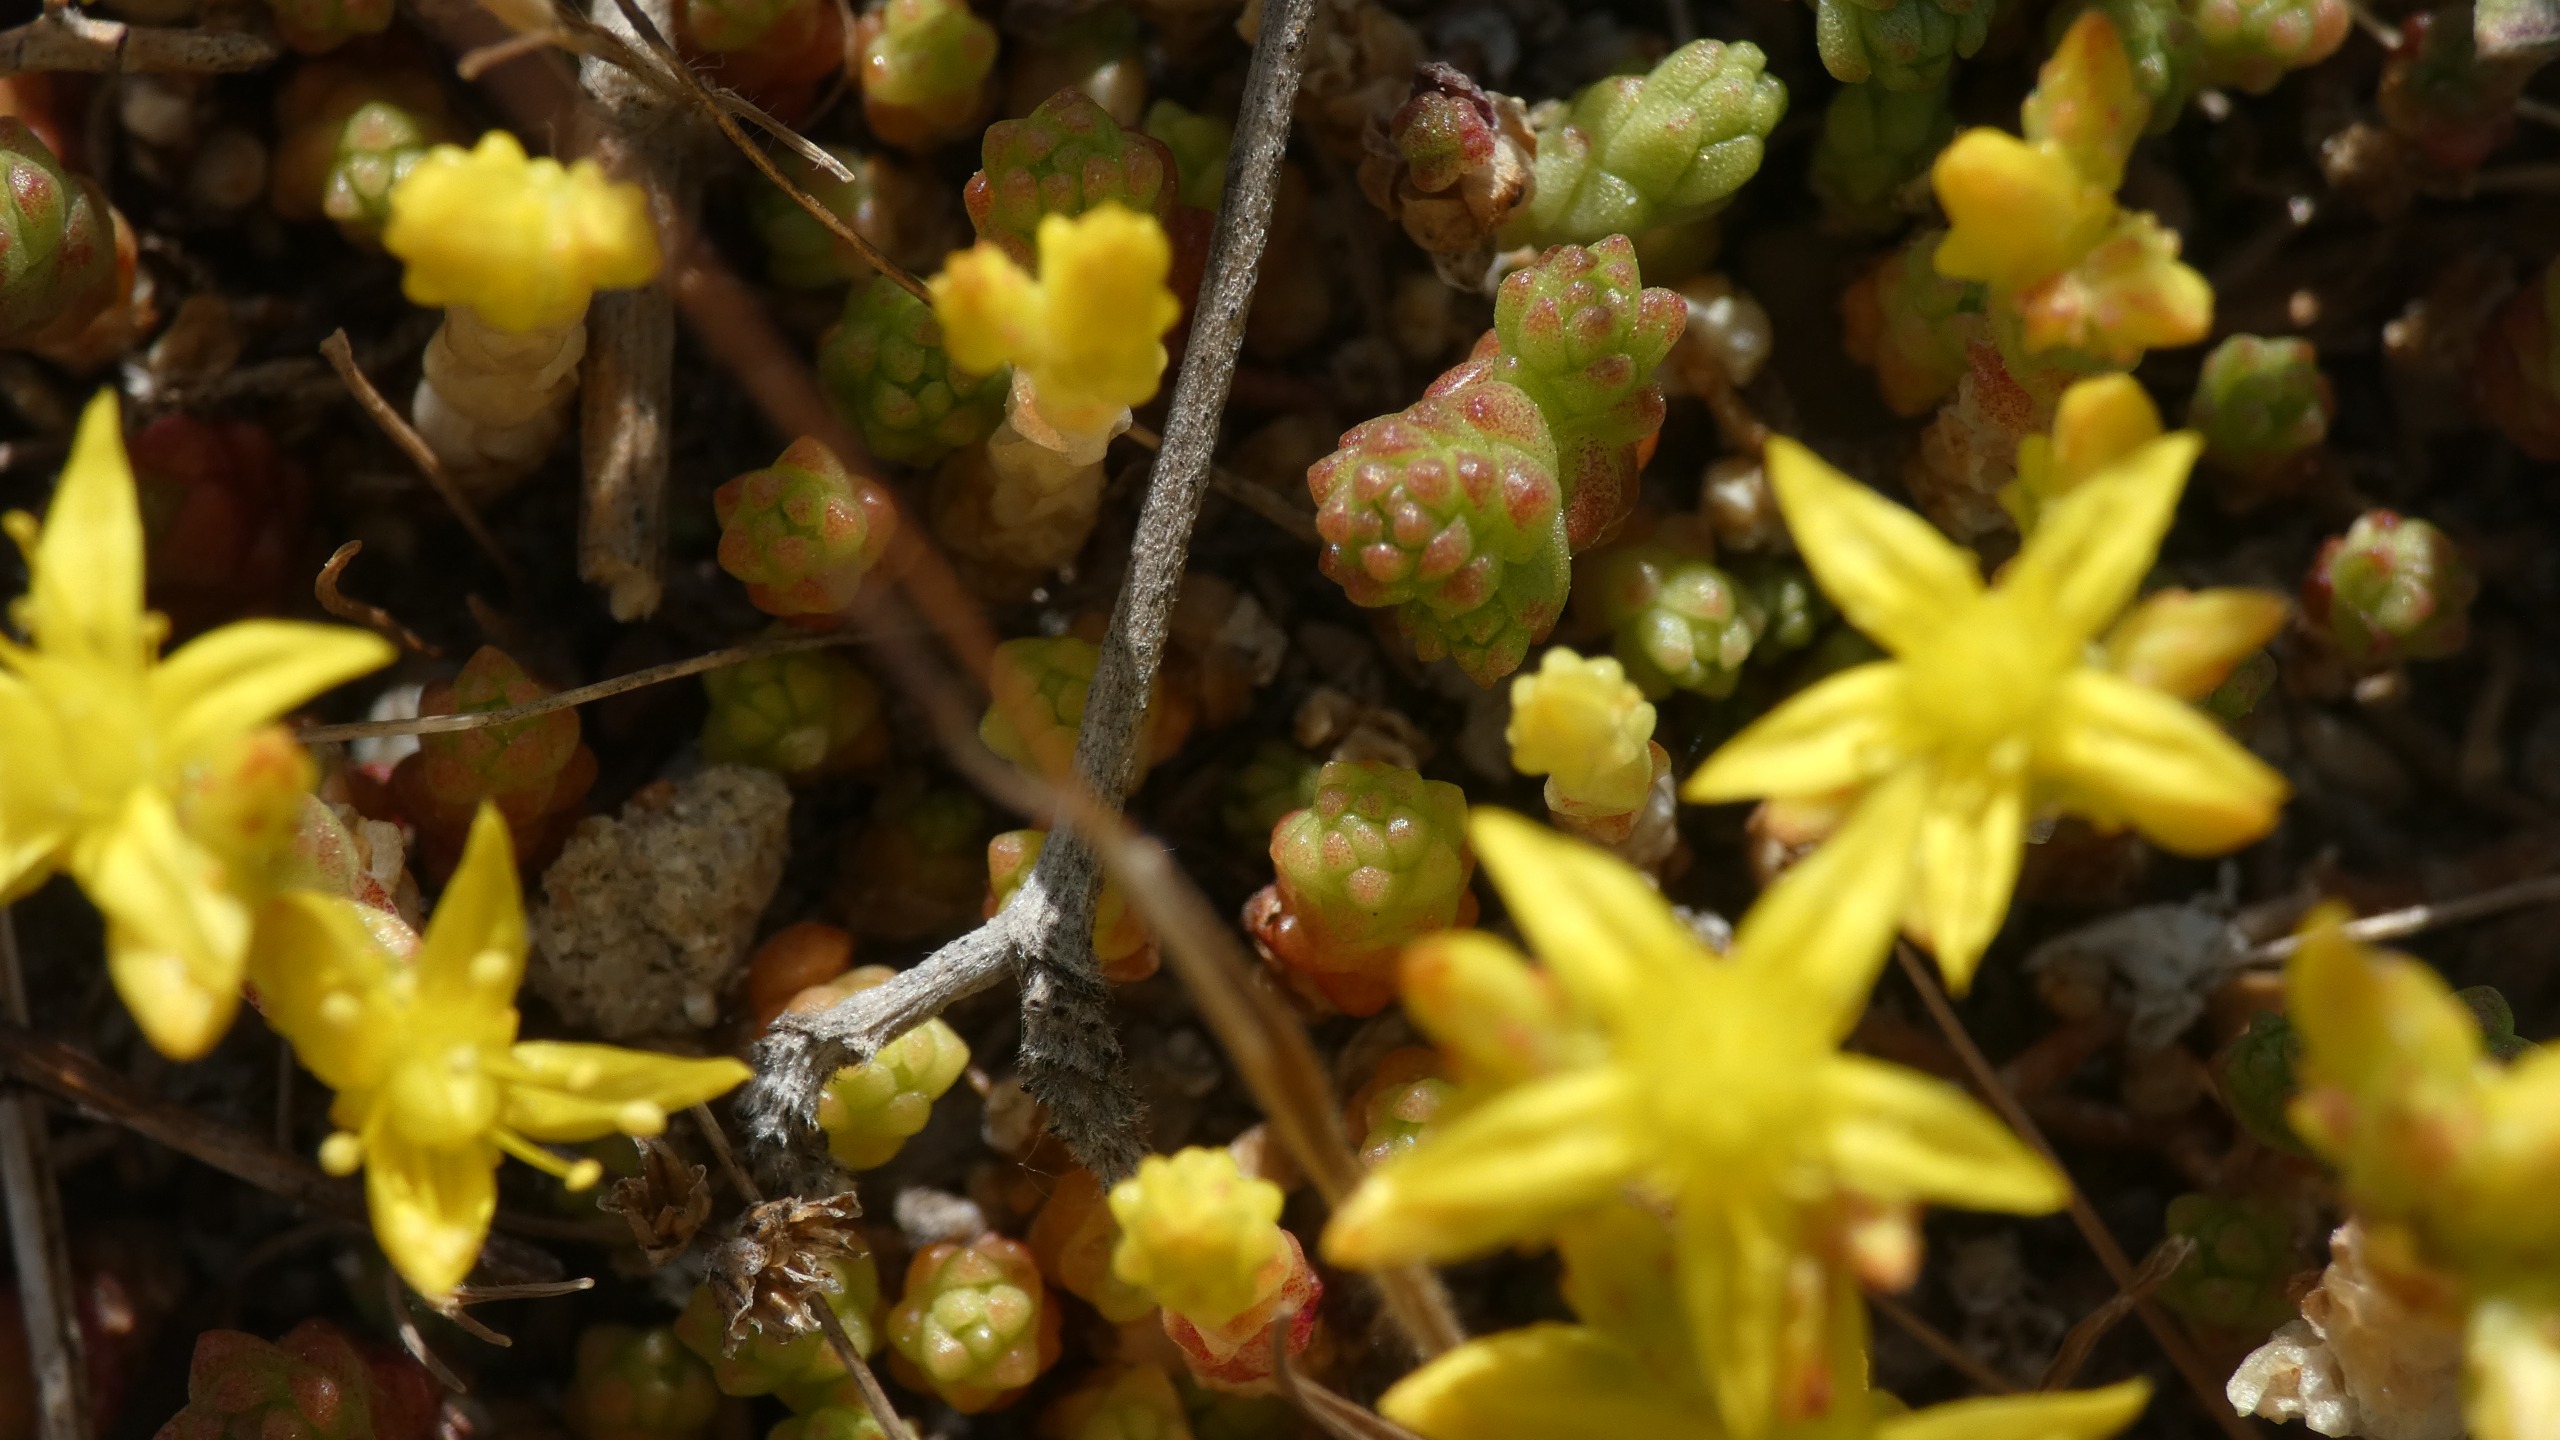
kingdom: Plantae
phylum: Tracheophyta
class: Magnoliopsida
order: Saxifragales
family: Crassulaceae
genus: Sedum
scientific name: Sedum acre
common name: Bidende stenurt
